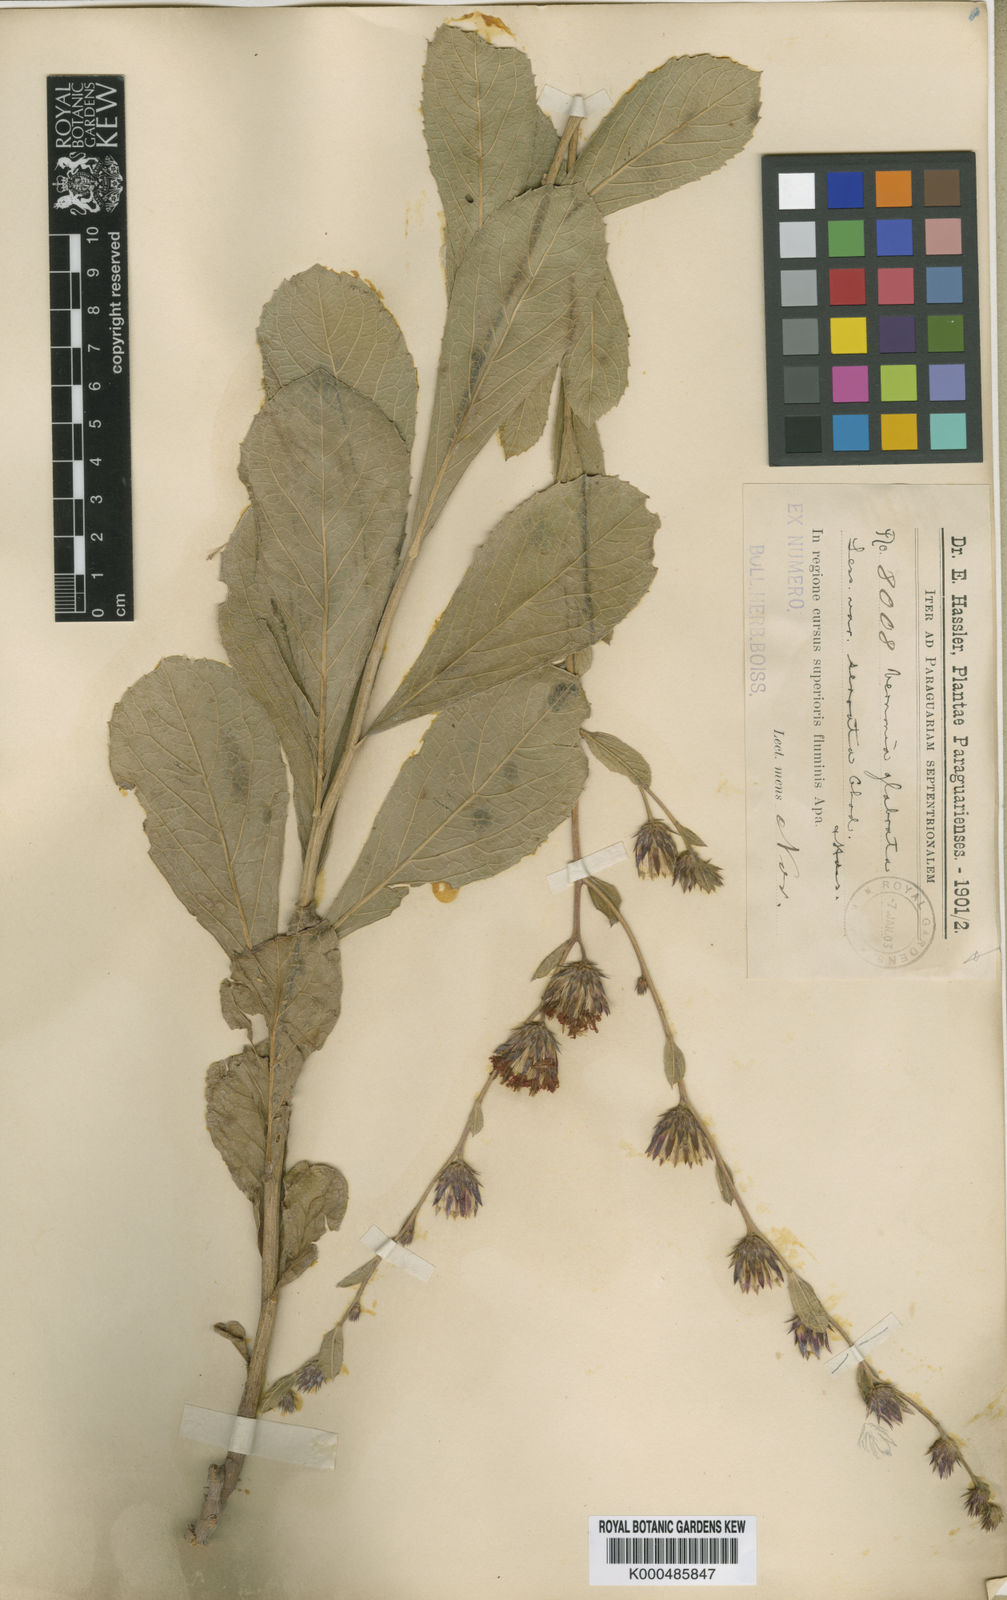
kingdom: Plantae
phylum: Tracheophyta
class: Magnoliopsida
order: Asterales
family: Asteraceae
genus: Lessingianthus
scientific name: Lessingianthus glabratus
